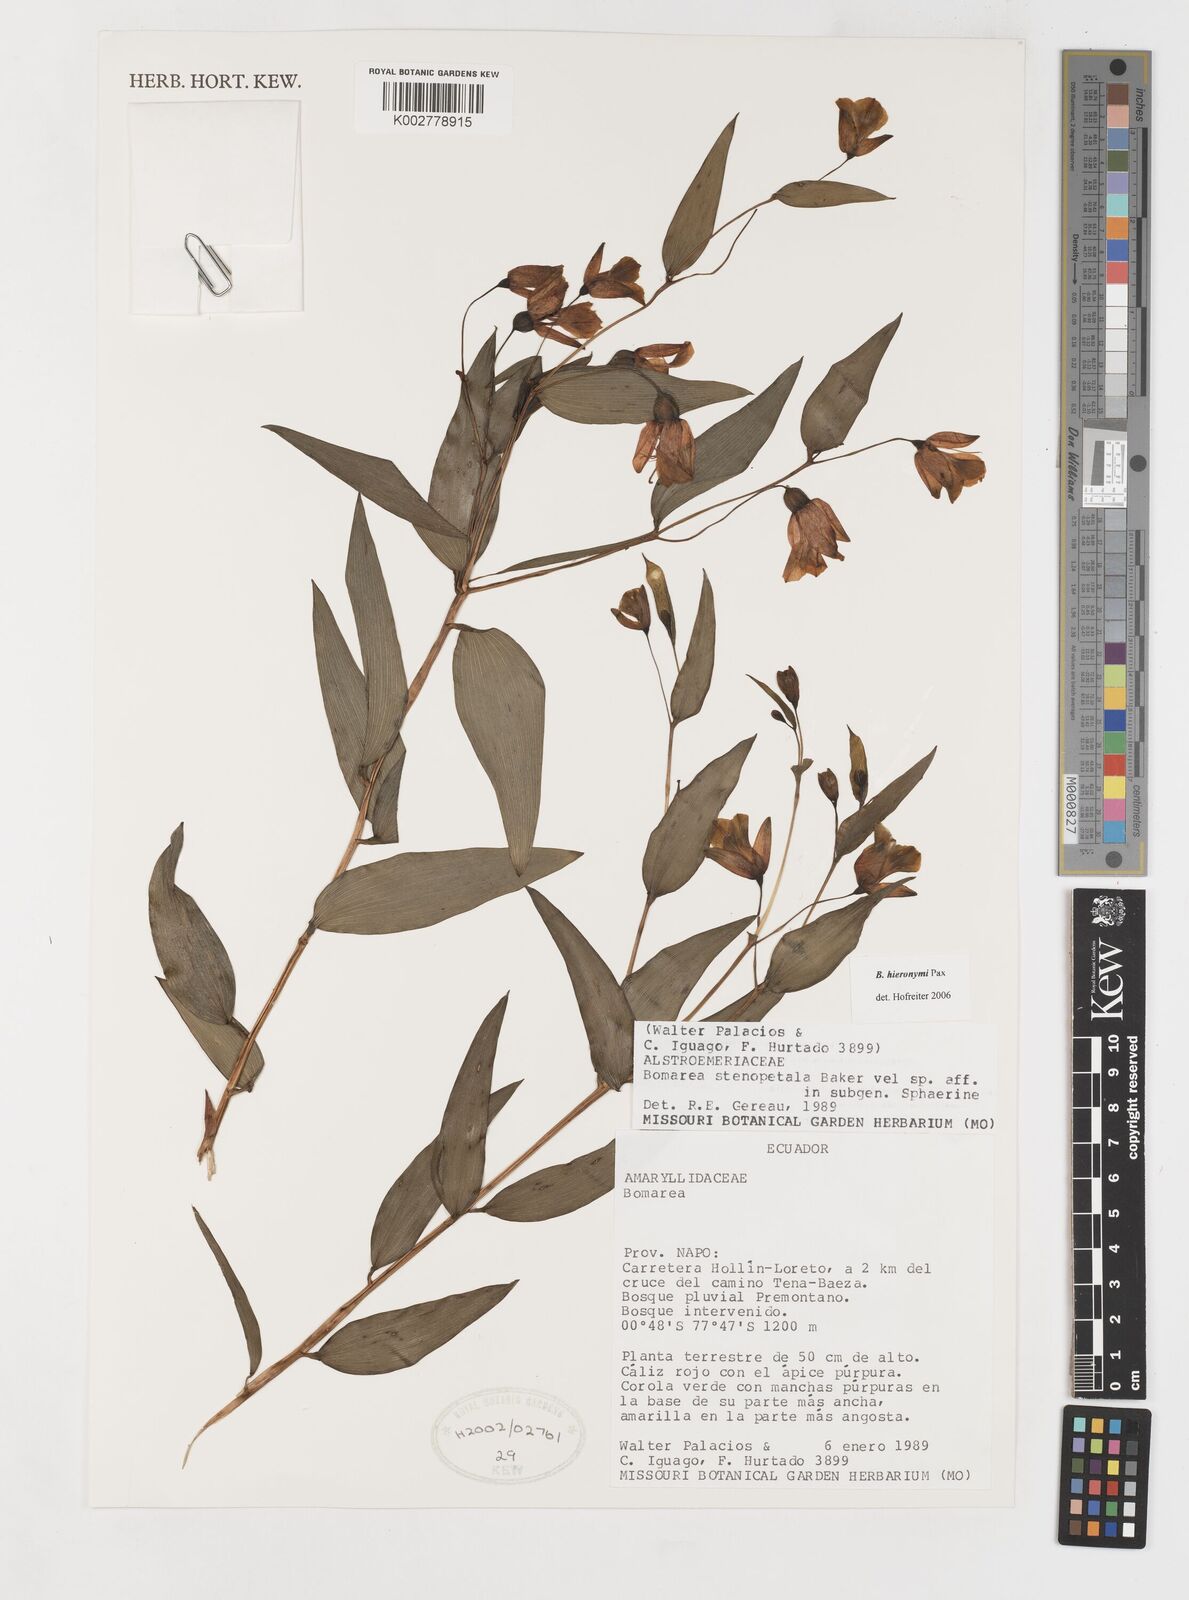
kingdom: Plantae
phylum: Tracheophyta
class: Liliopsida
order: Liliales
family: Alstroemeriaceae
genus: Bomarea
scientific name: Bomarea hieronymi
